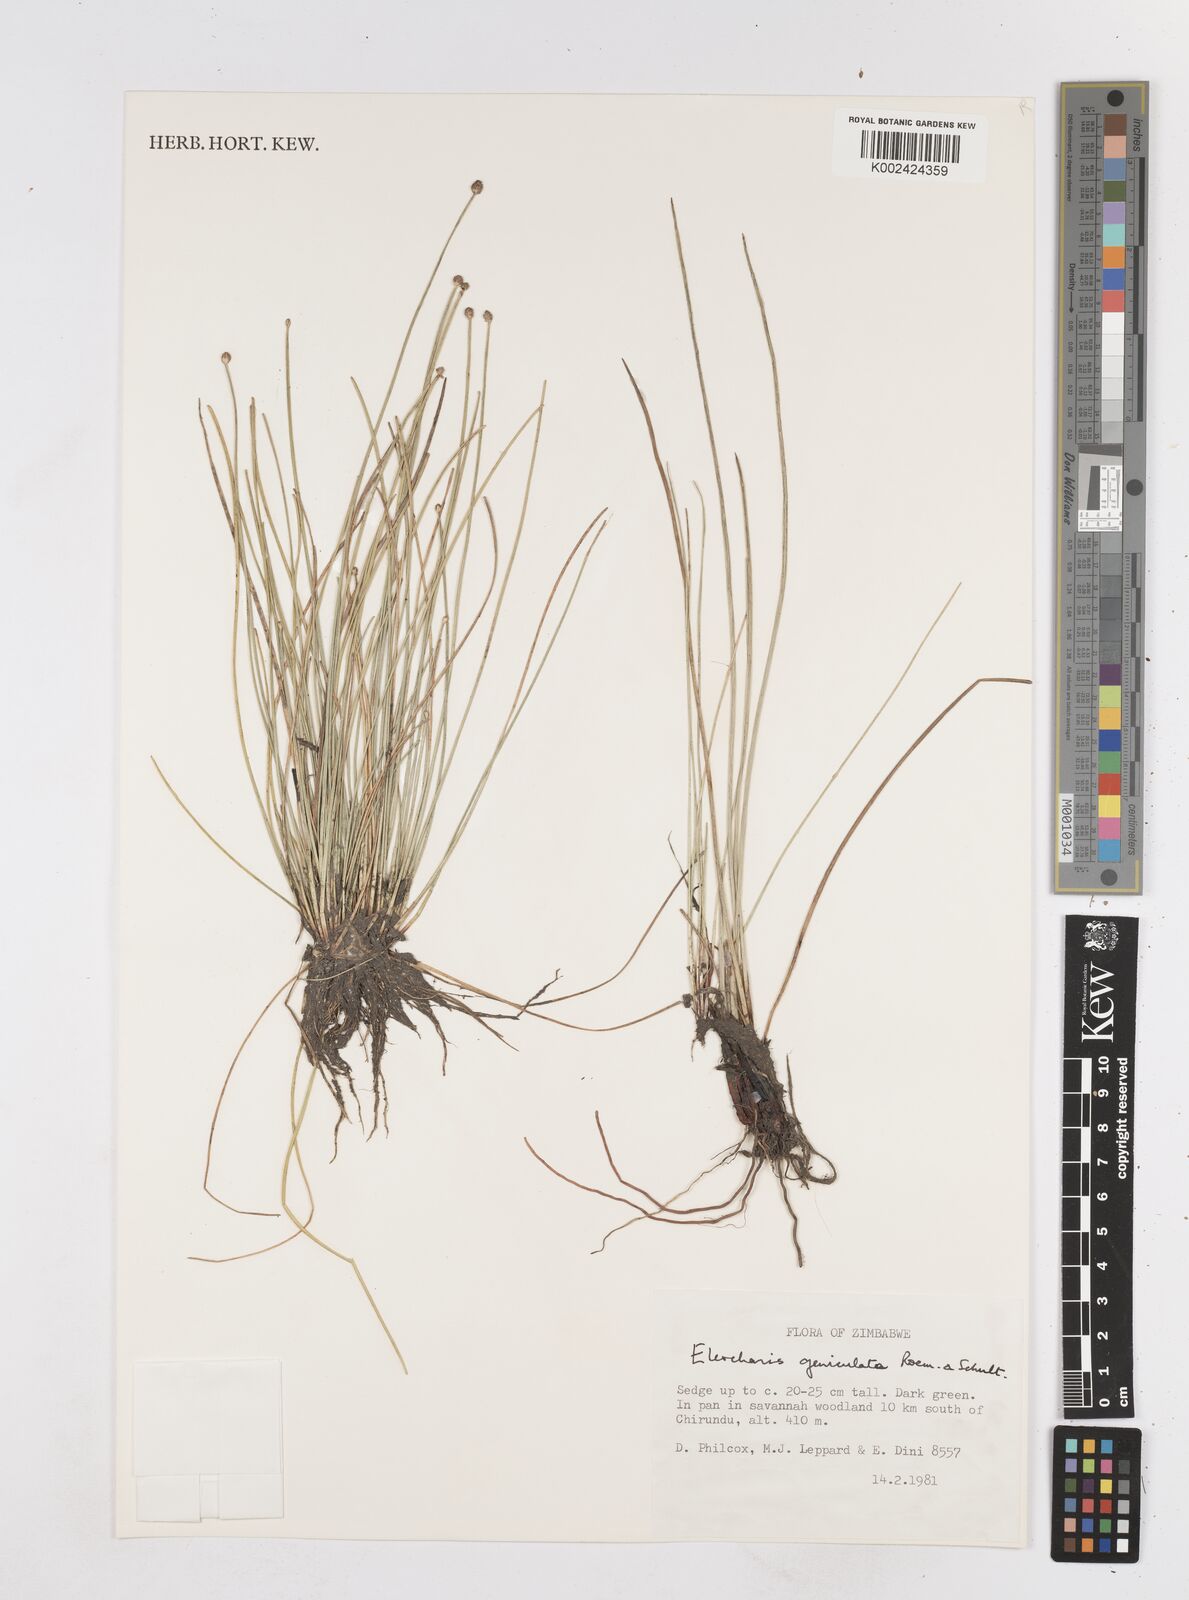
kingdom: Plantae
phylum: Tracheophyta
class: Liliopsida
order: Poales
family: Cyperaceae
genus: Eleocharis
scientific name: Eleocharis geniculata
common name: Canada spikesedge
